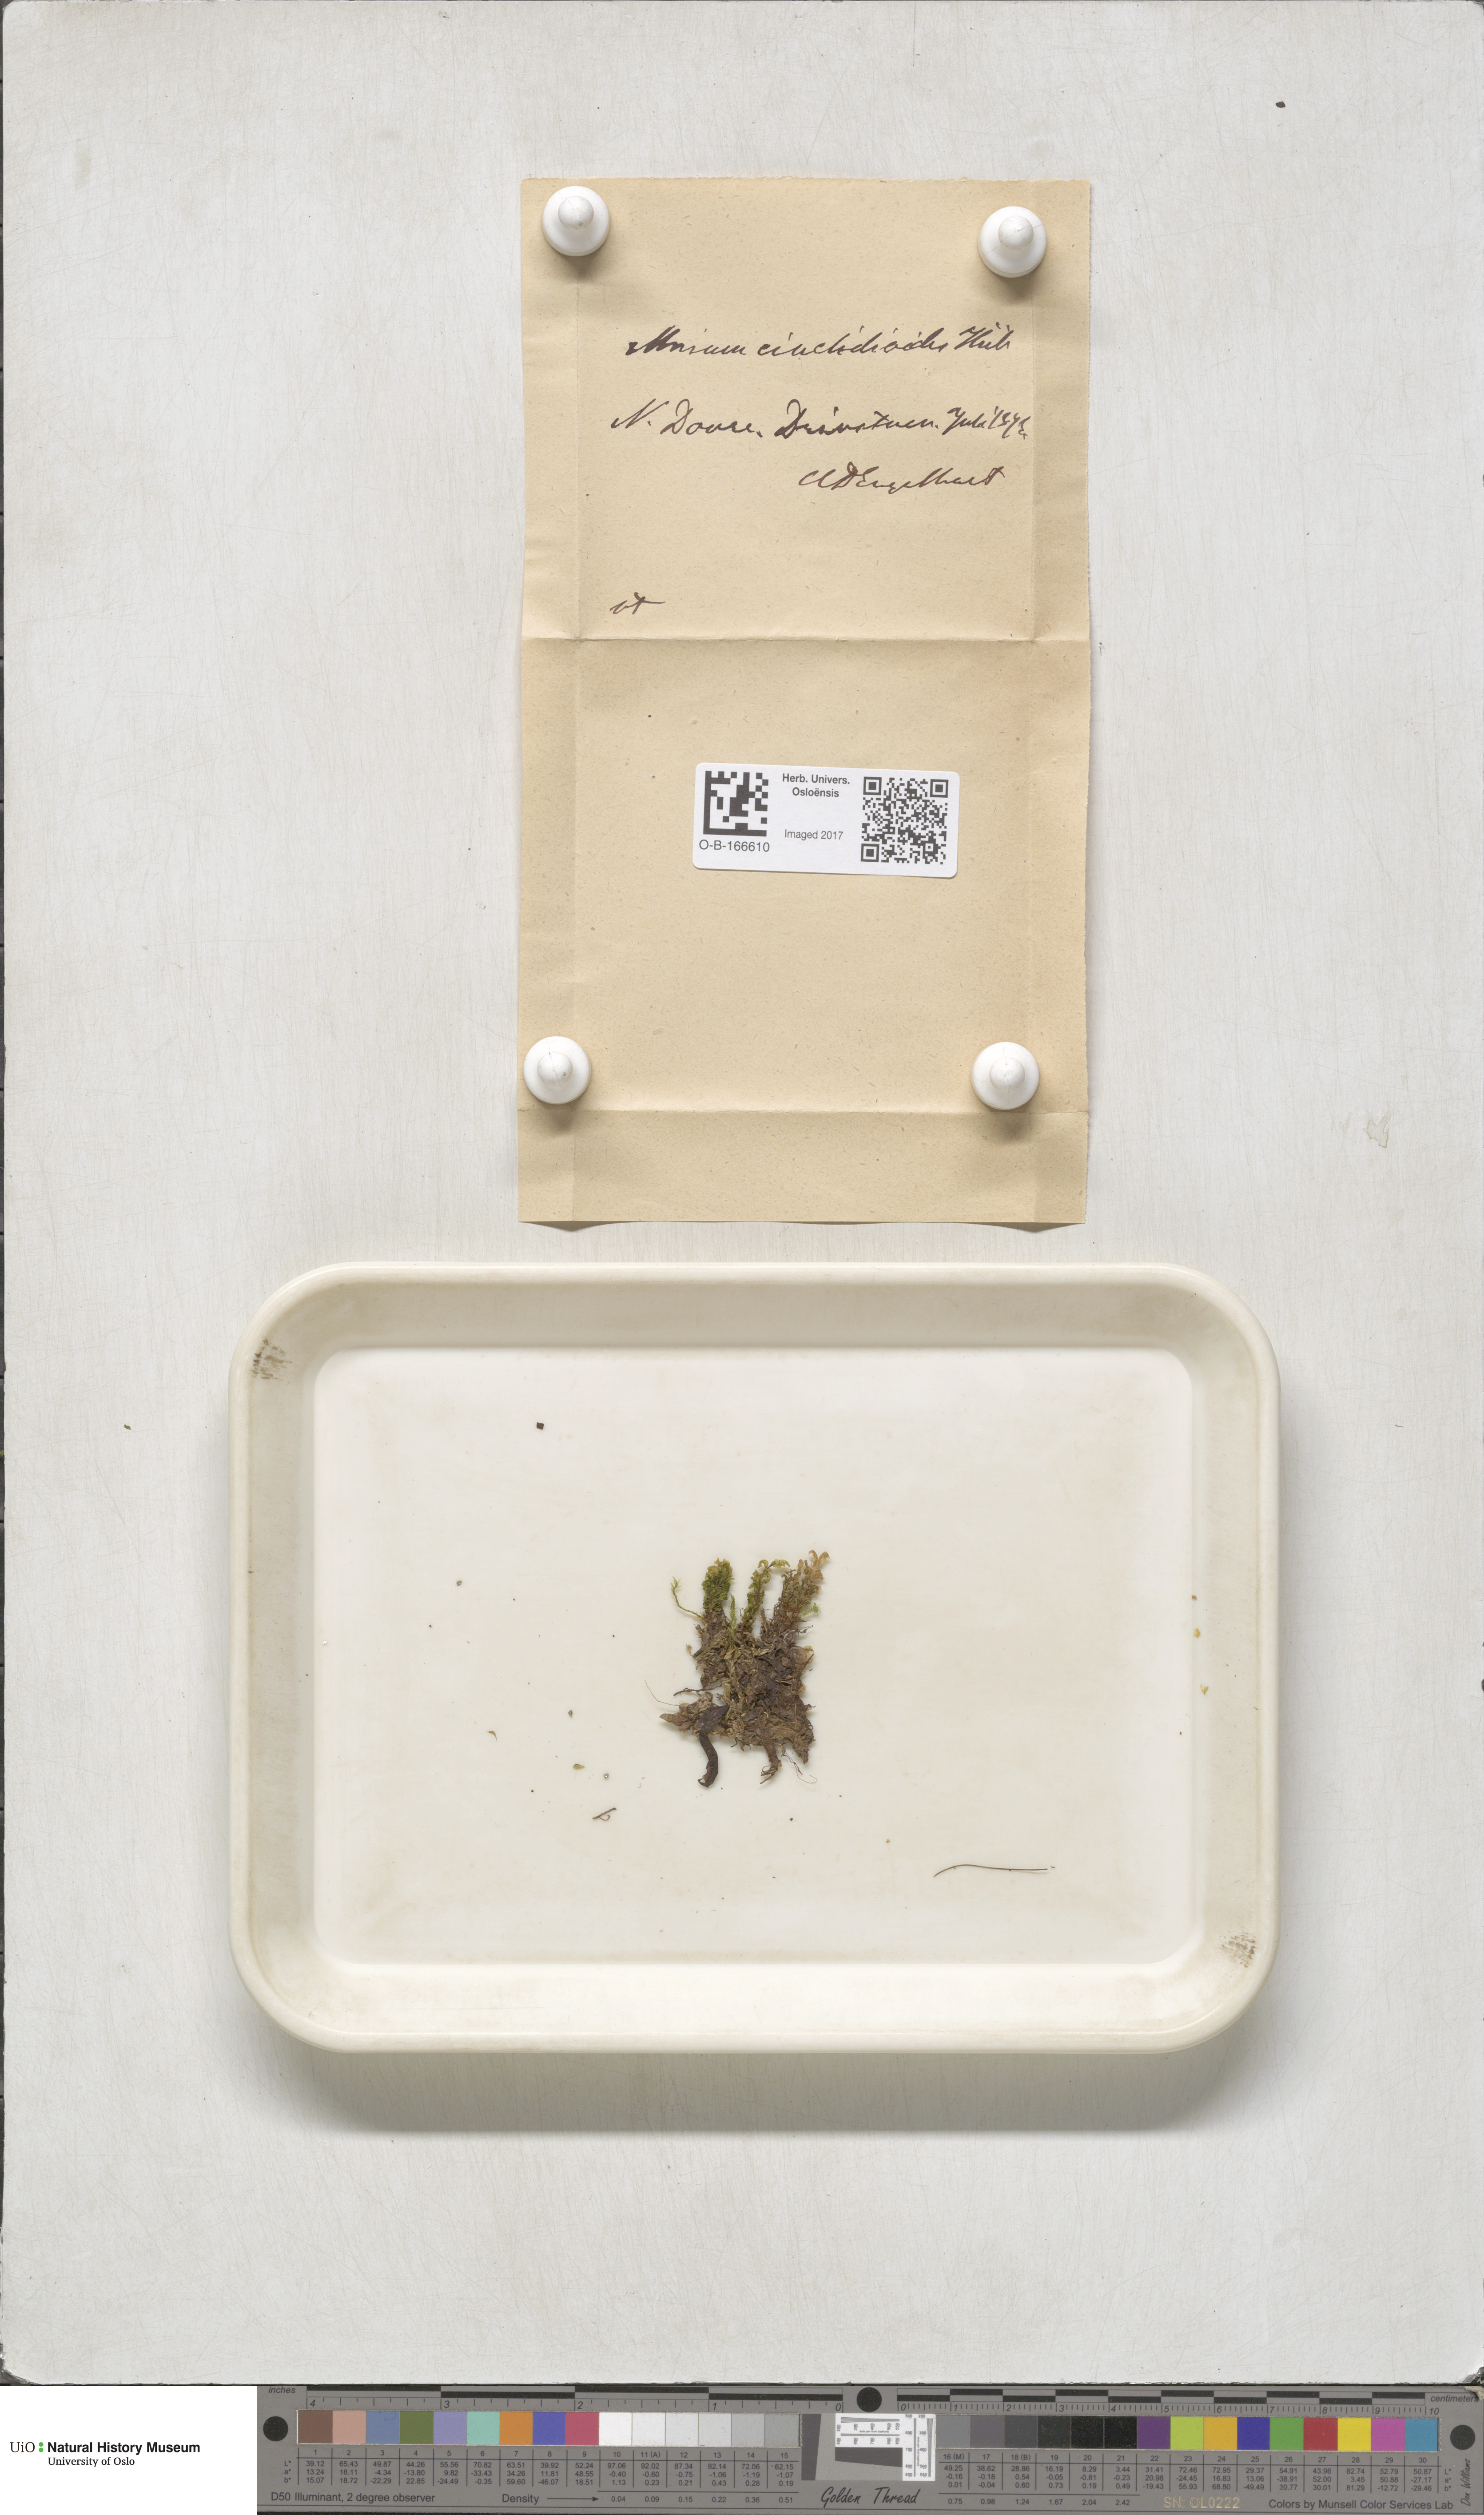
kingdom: Plantae
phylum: Bryophyta
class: Bryopsida
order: Bryales
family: Mniaceae
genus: Pseudobryum
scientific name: Pseudobryum cinclidioides
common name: River thyme moss
